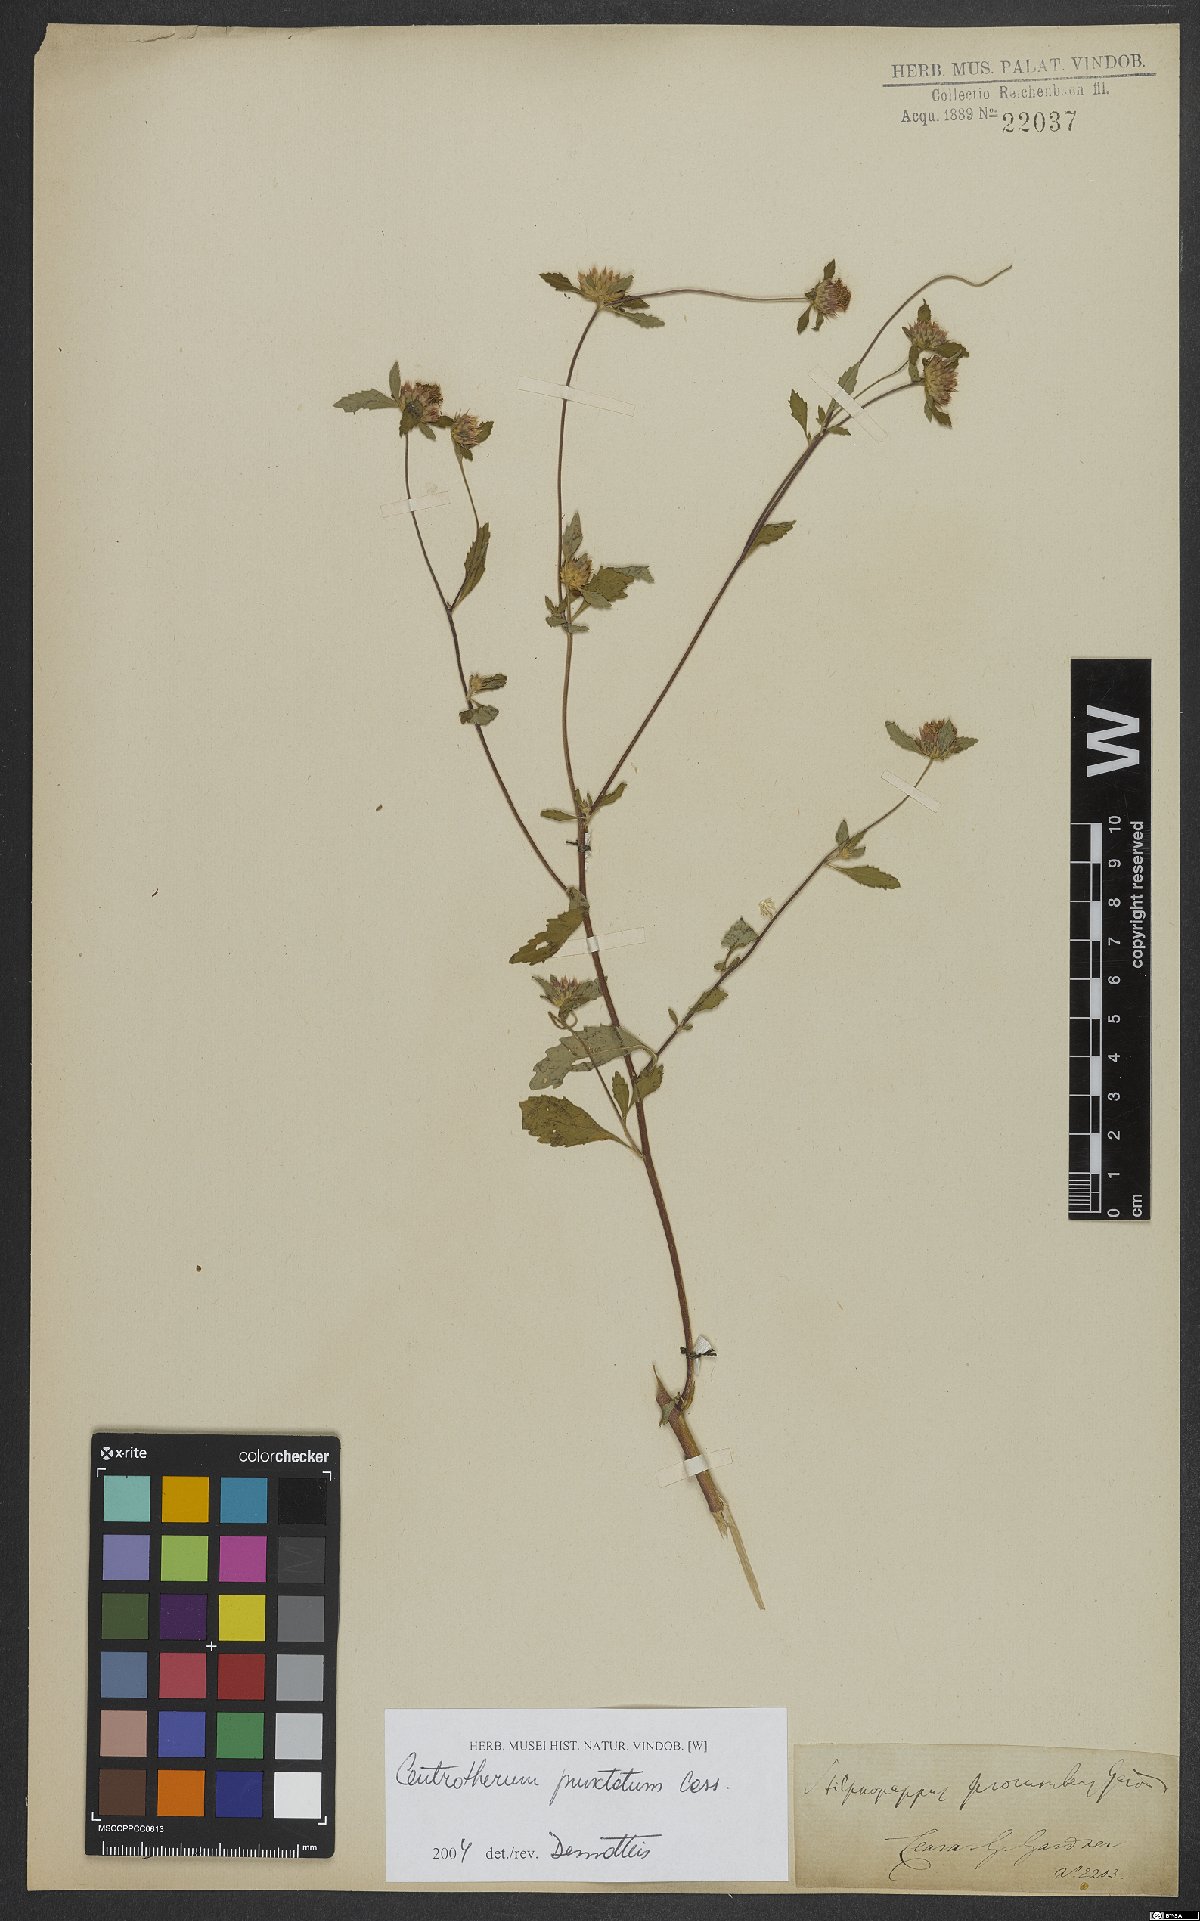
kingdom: Plantae
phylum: Tracheophyta
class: Magnoliopsida
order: Asterales
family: Asteraceae
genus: Centratherum
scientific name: Centratherum punctatum
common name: Larkdaisy
